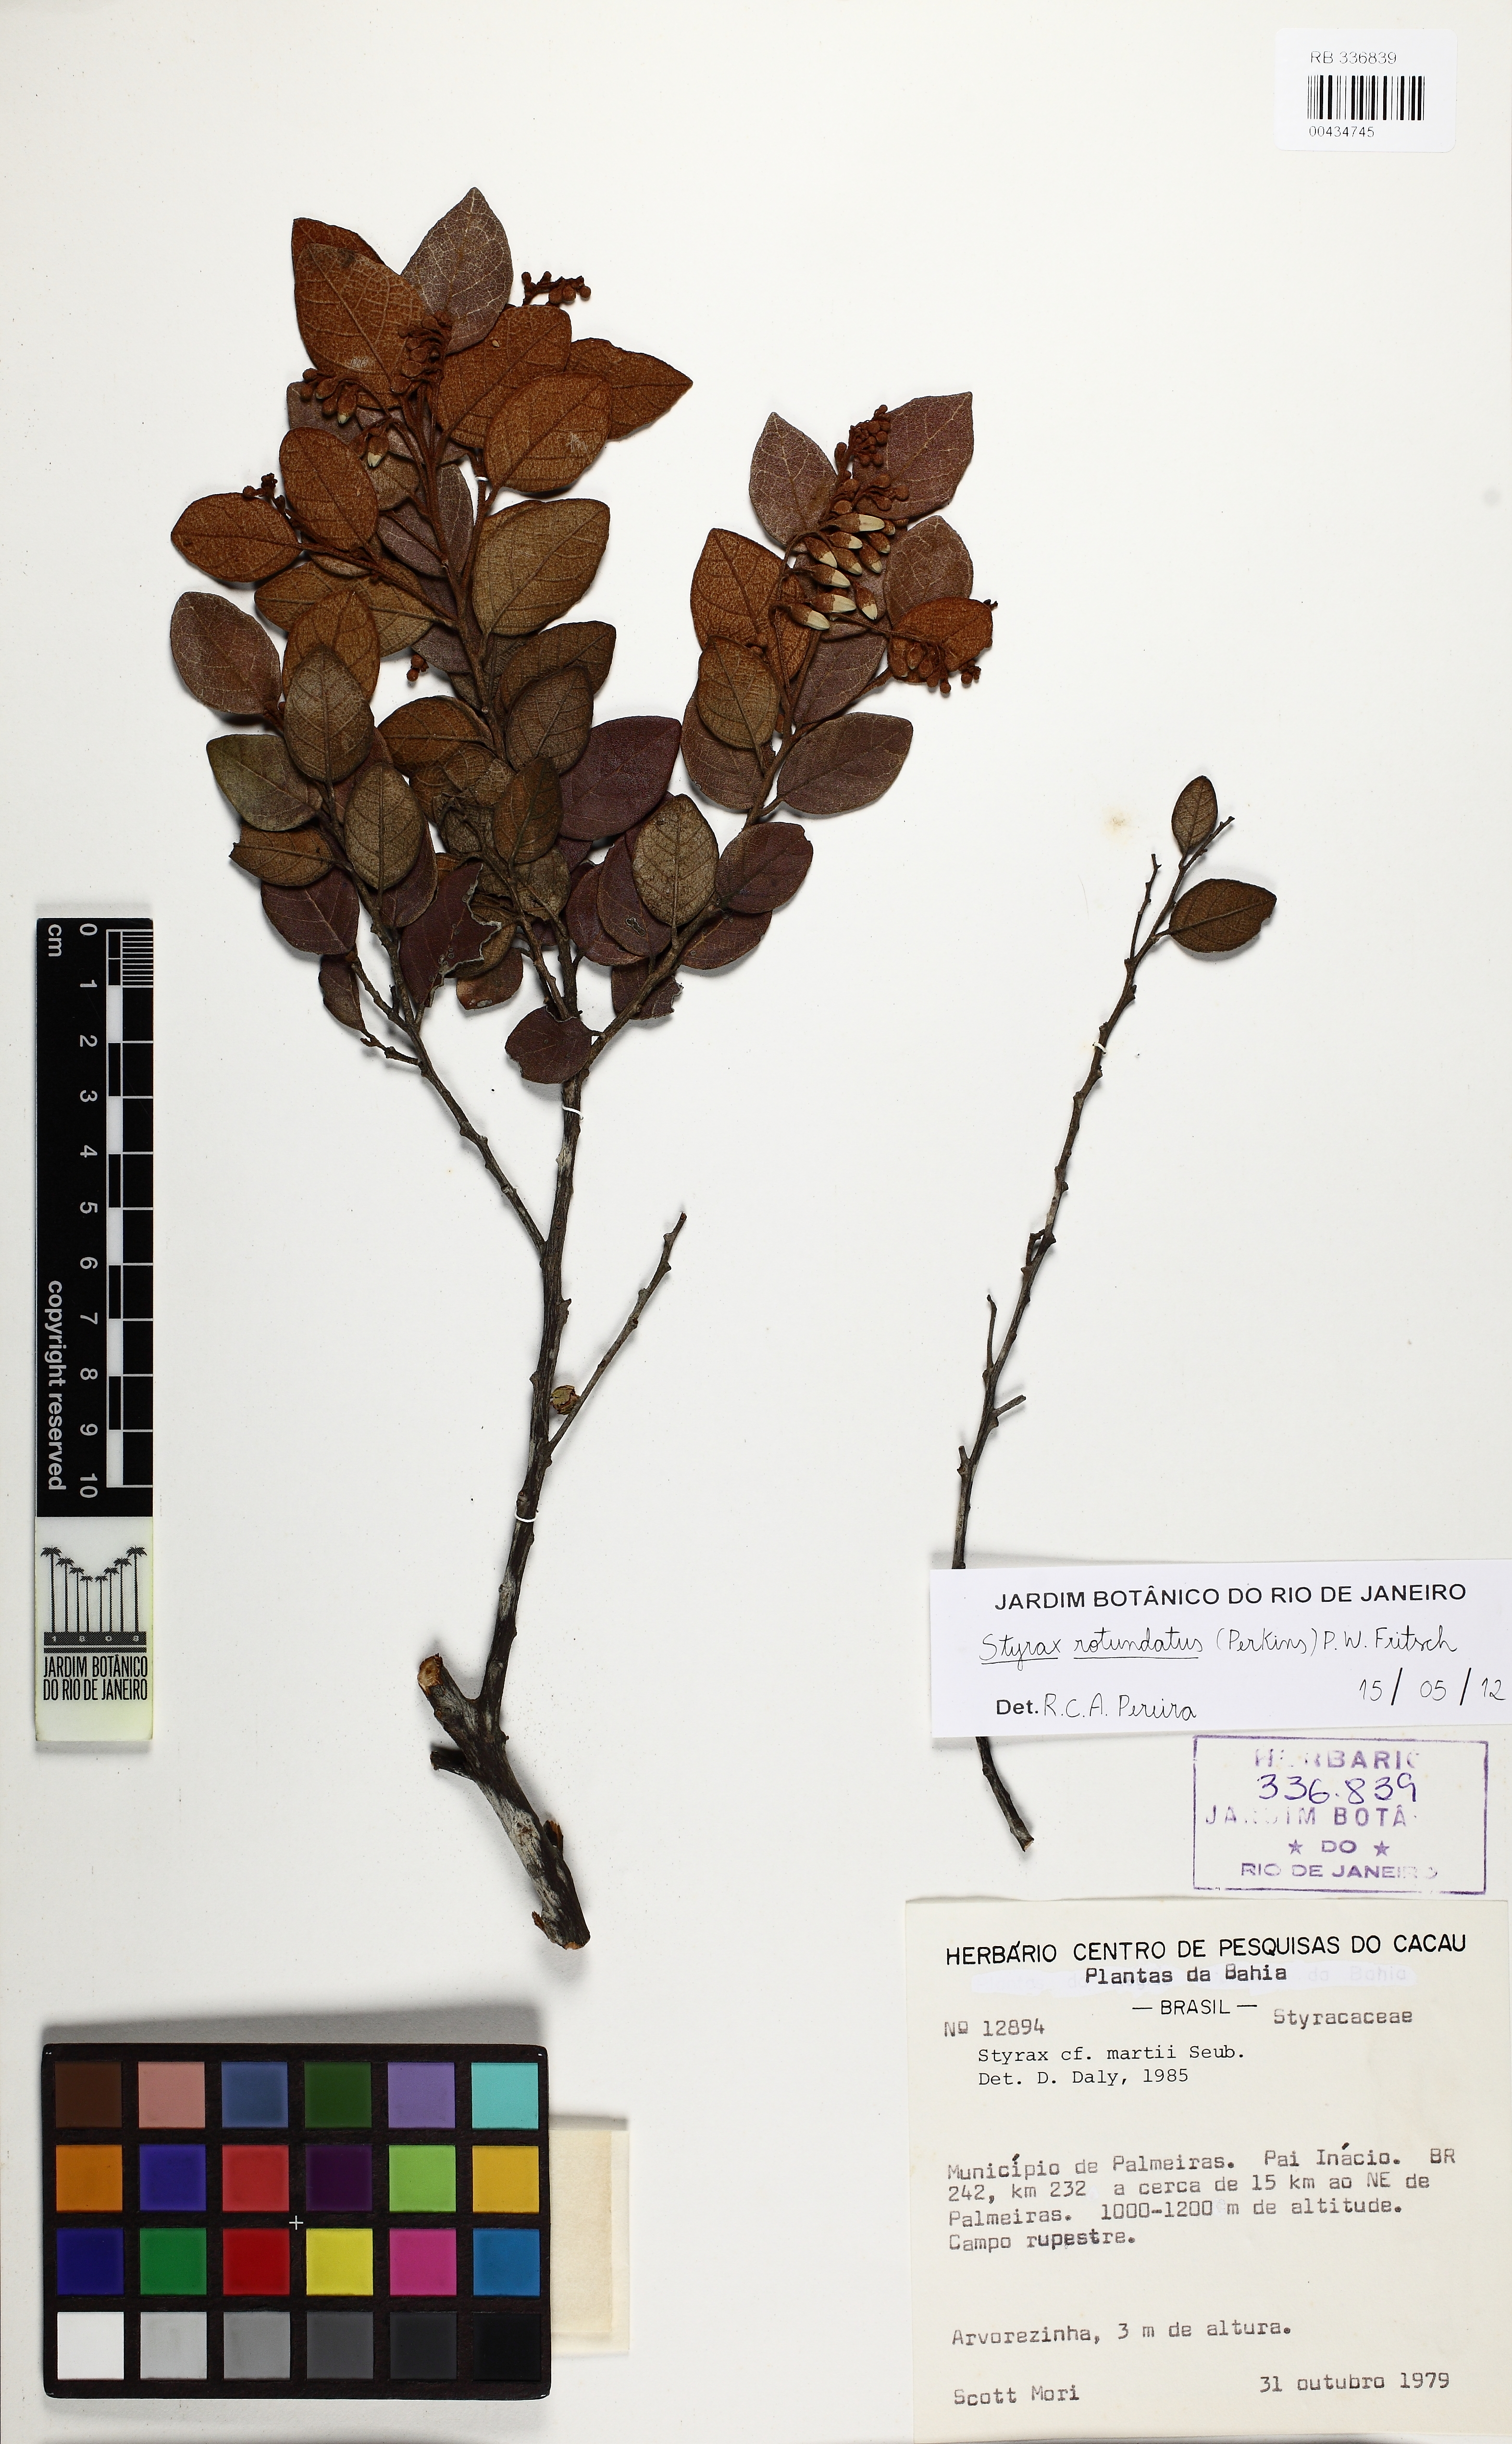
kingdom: Plantae
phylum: Tracheophyta
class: Magnoliopsida
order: Ericales
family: Styracaceae
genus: Styrax
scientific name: Styrax martii
